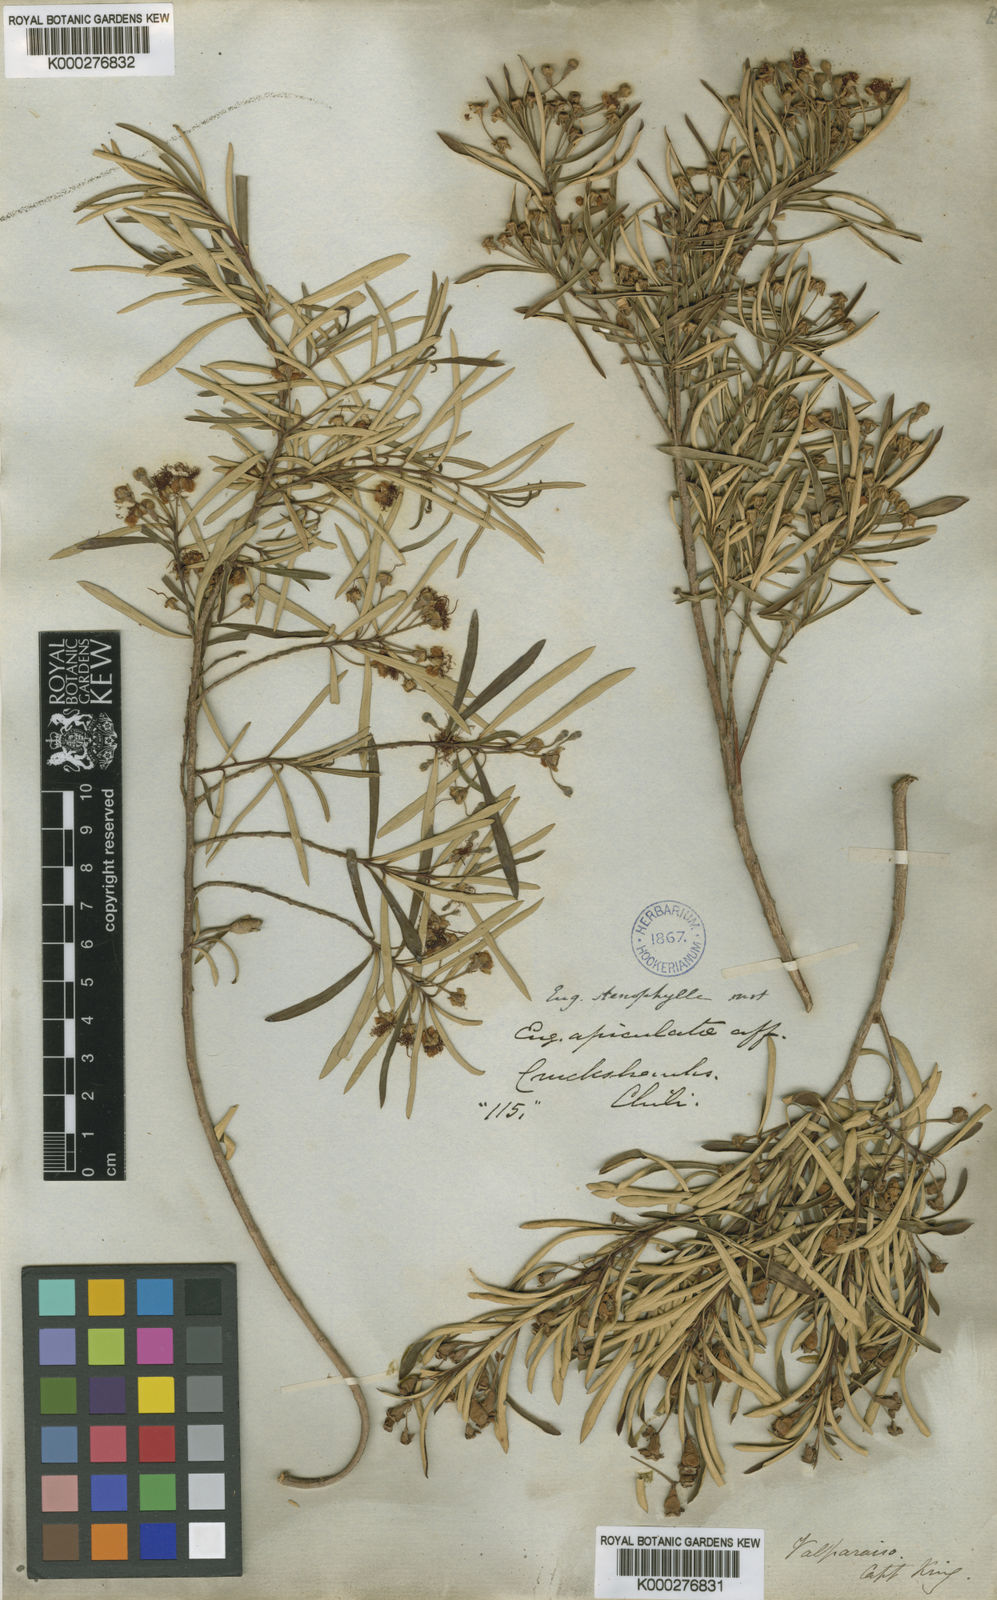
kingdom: Plantae
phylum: Tracheophyta
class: Magnoliopsida
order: Myrtales
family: Myrtaceae
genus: Myrceugenia
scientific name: Myrceugenia lanceolata
